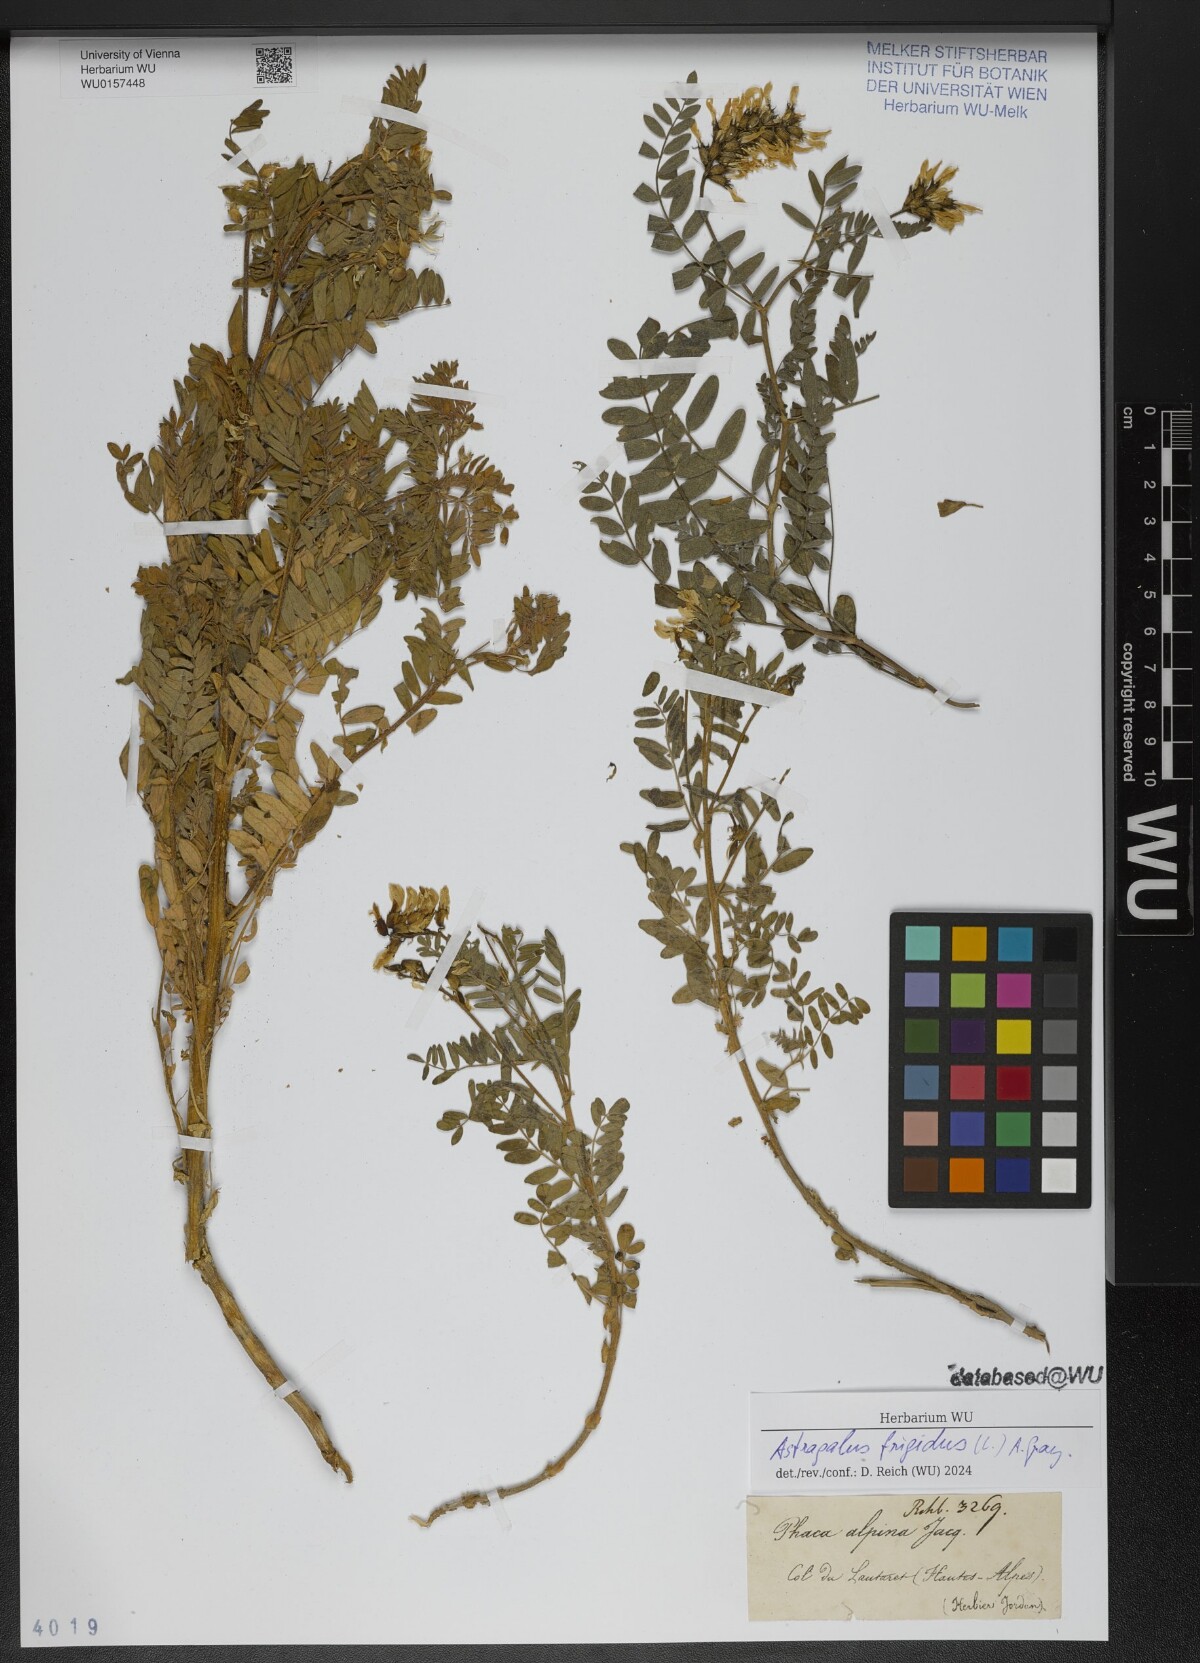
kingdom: Plantae
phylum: Tracheophyta
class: Magnoliopsida
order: Fabales
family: Fabaceae
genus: Astragalus
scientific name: Astragalus frigidus
